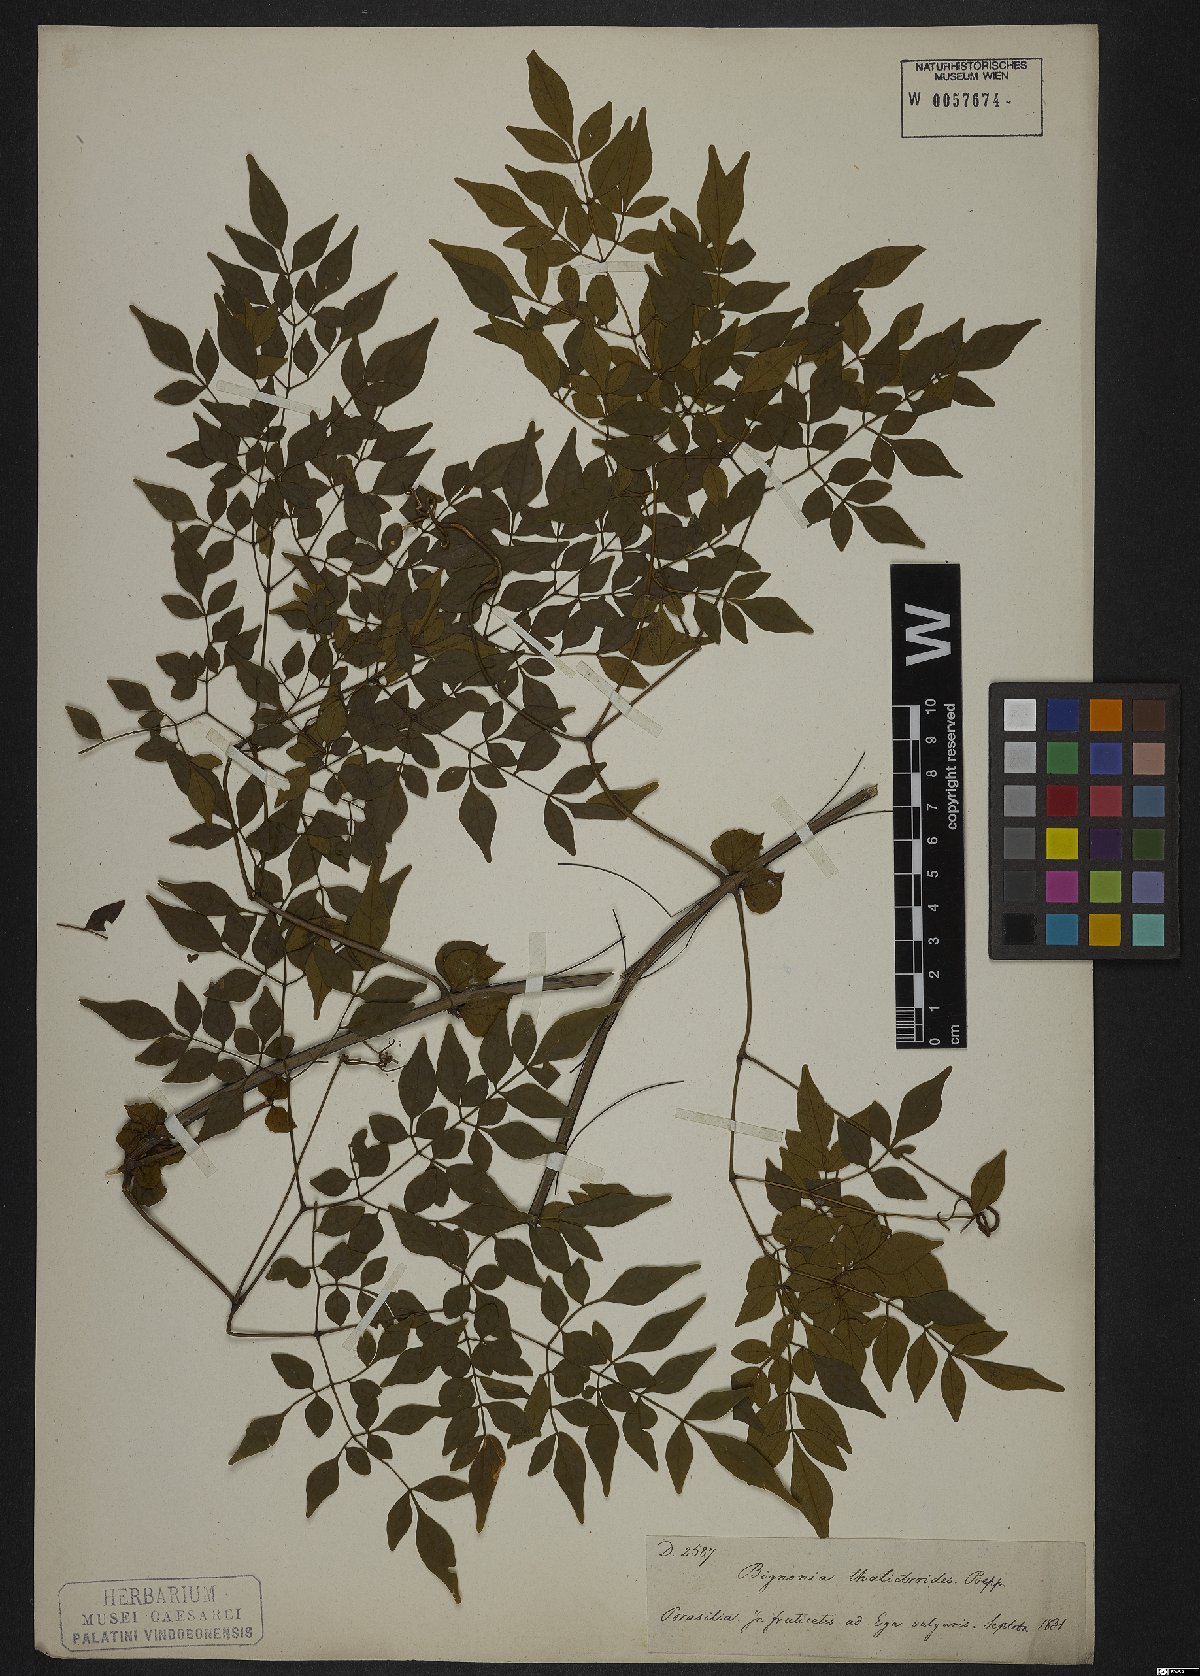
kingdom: Plantae
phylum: Tracheophyta
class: Magnoliopsida
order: Lamiales
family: Bignoniaceae
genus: Pleonotoma
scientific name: Pleonotoma jasminifolia
